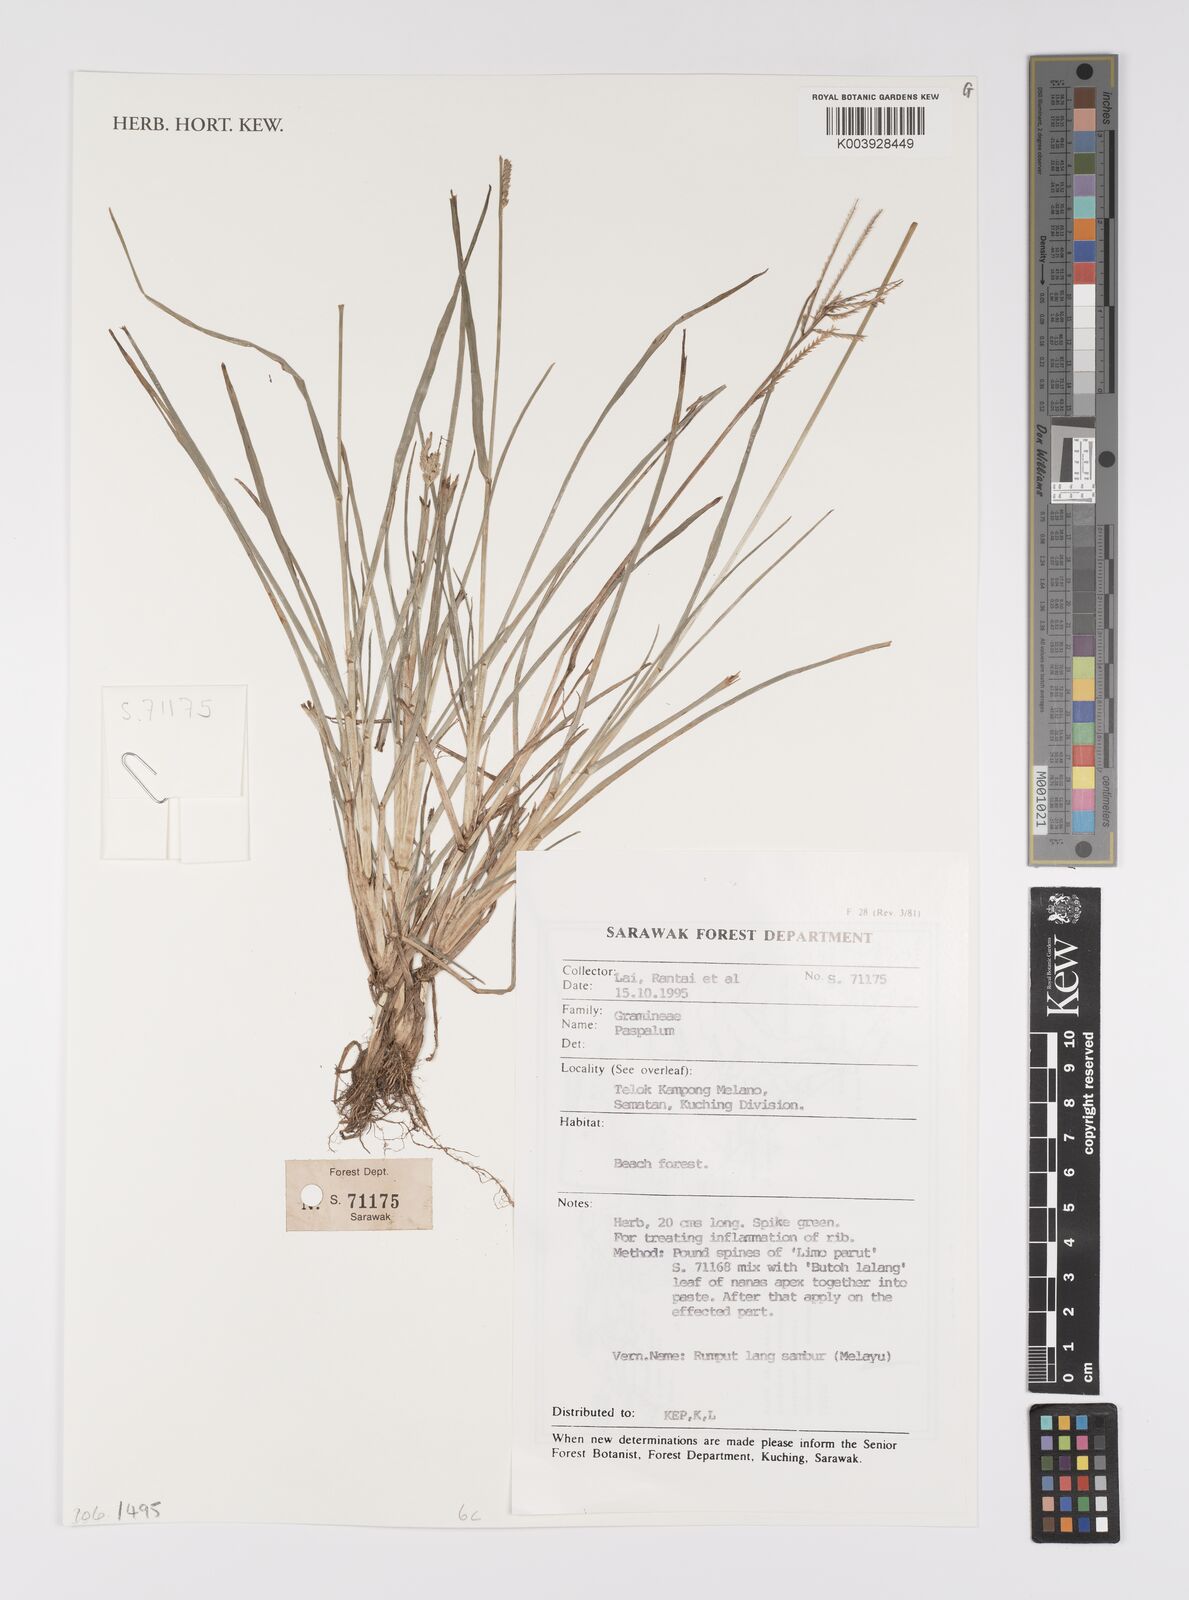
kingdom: Plantae
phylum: Tracheophyta
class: Liliopsida
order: Poales
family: Poaceae
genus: Paspalum
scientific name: Paspalum
